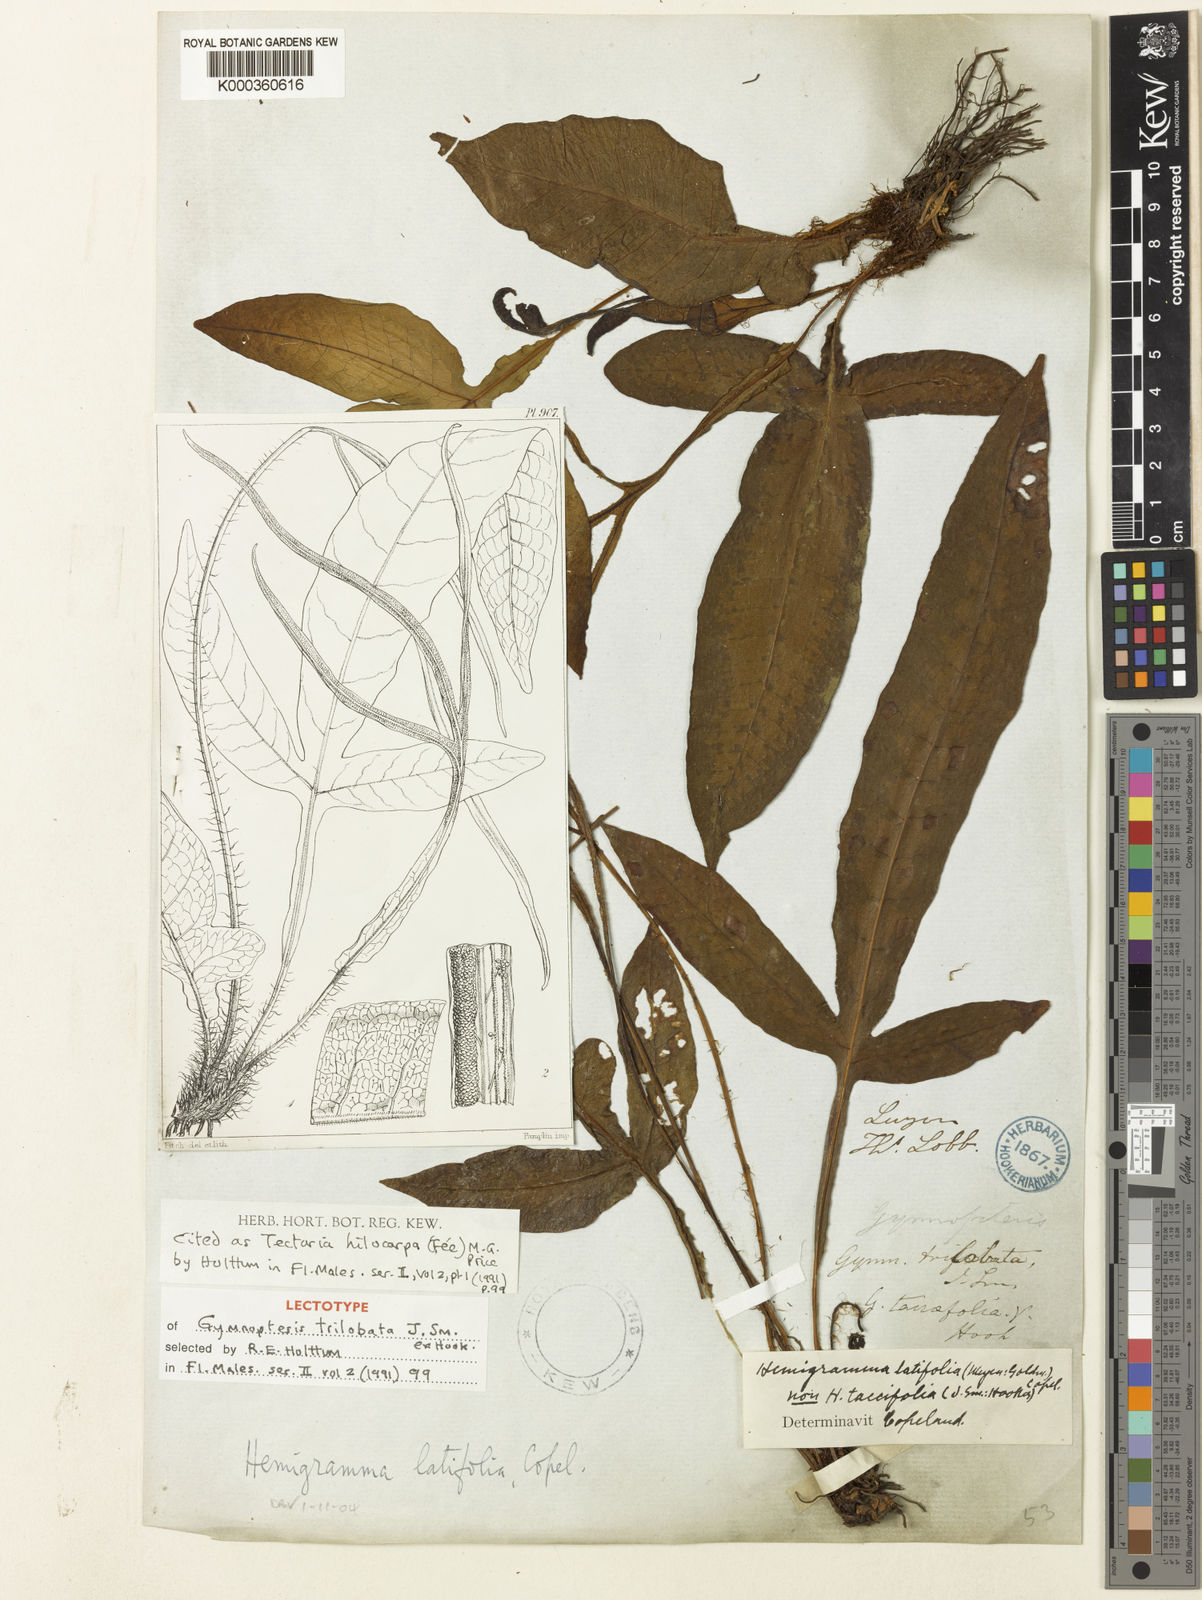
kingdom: Plantae
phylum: Tracheophyta
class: Polypodiopsida
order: Polypodiales
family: Tectariaceae
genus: Tectaria
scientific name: Tectaria
